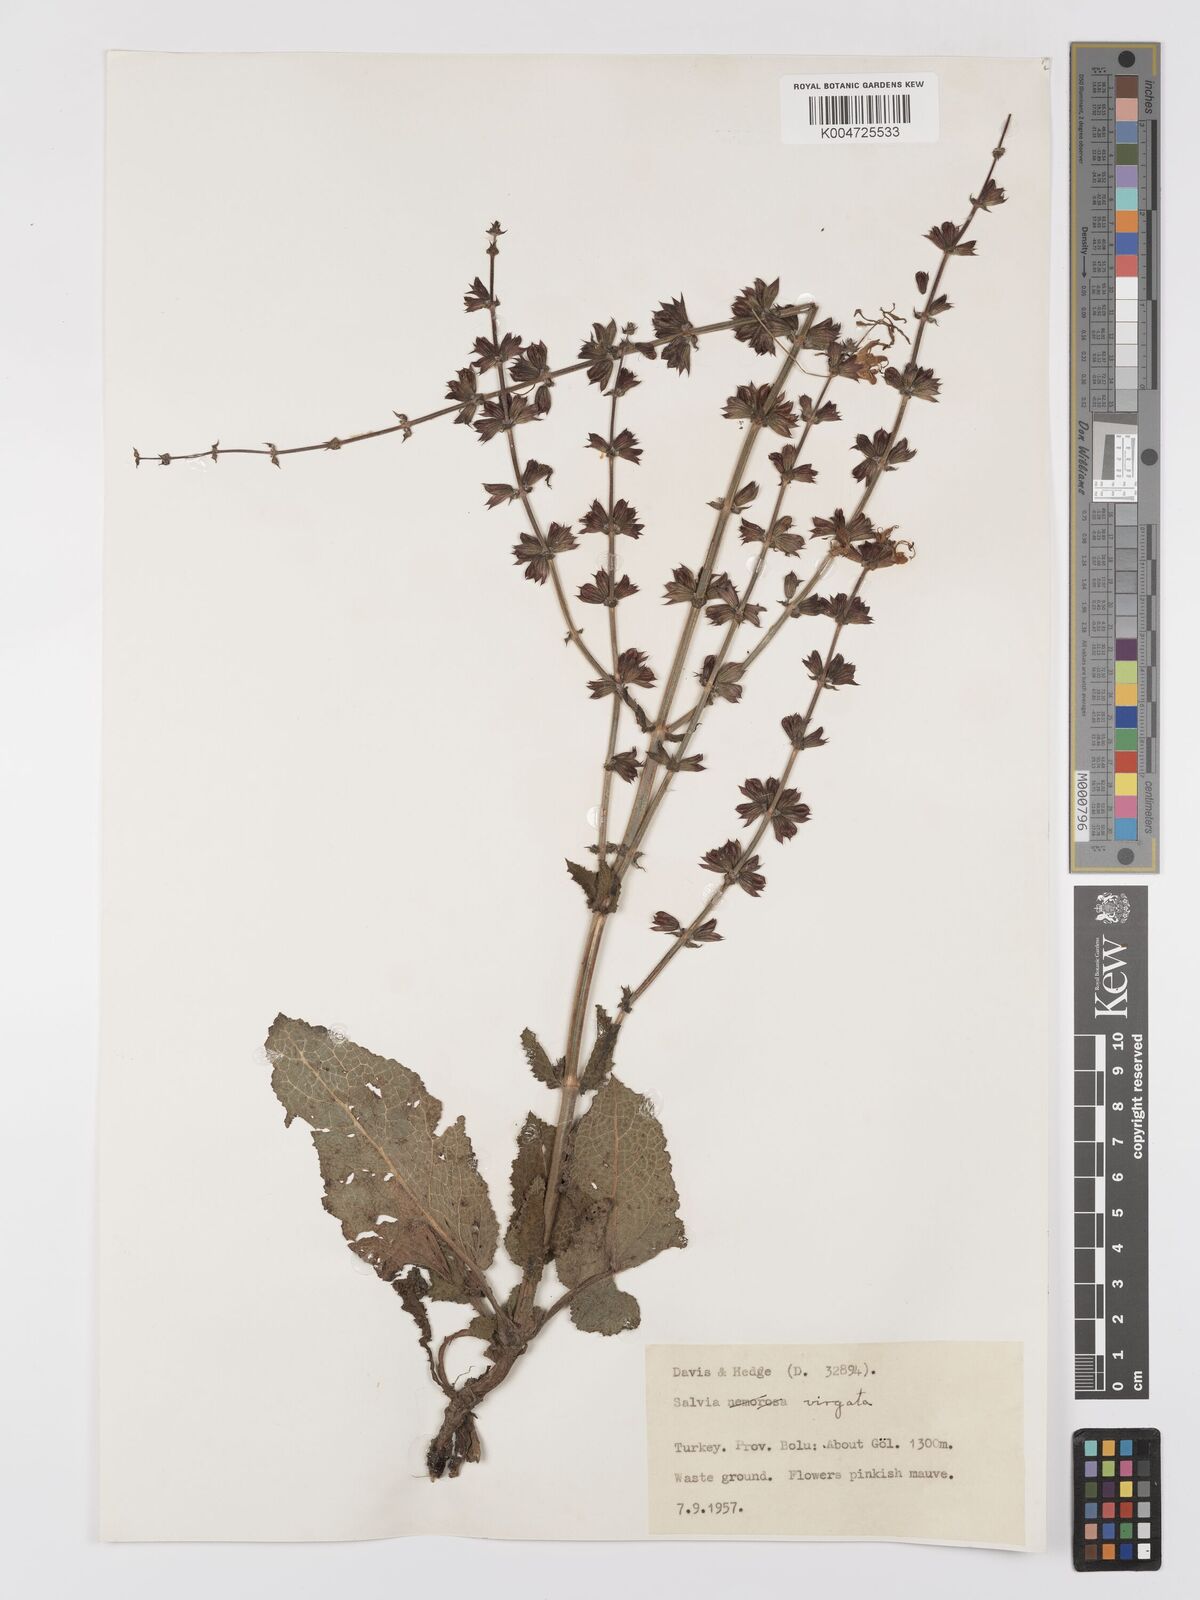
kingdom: Plantae
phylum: Tracheophyta
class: Magnoliopsida
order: Lamiales
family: Lamiaceae
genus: Salvia
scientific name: Salvia
